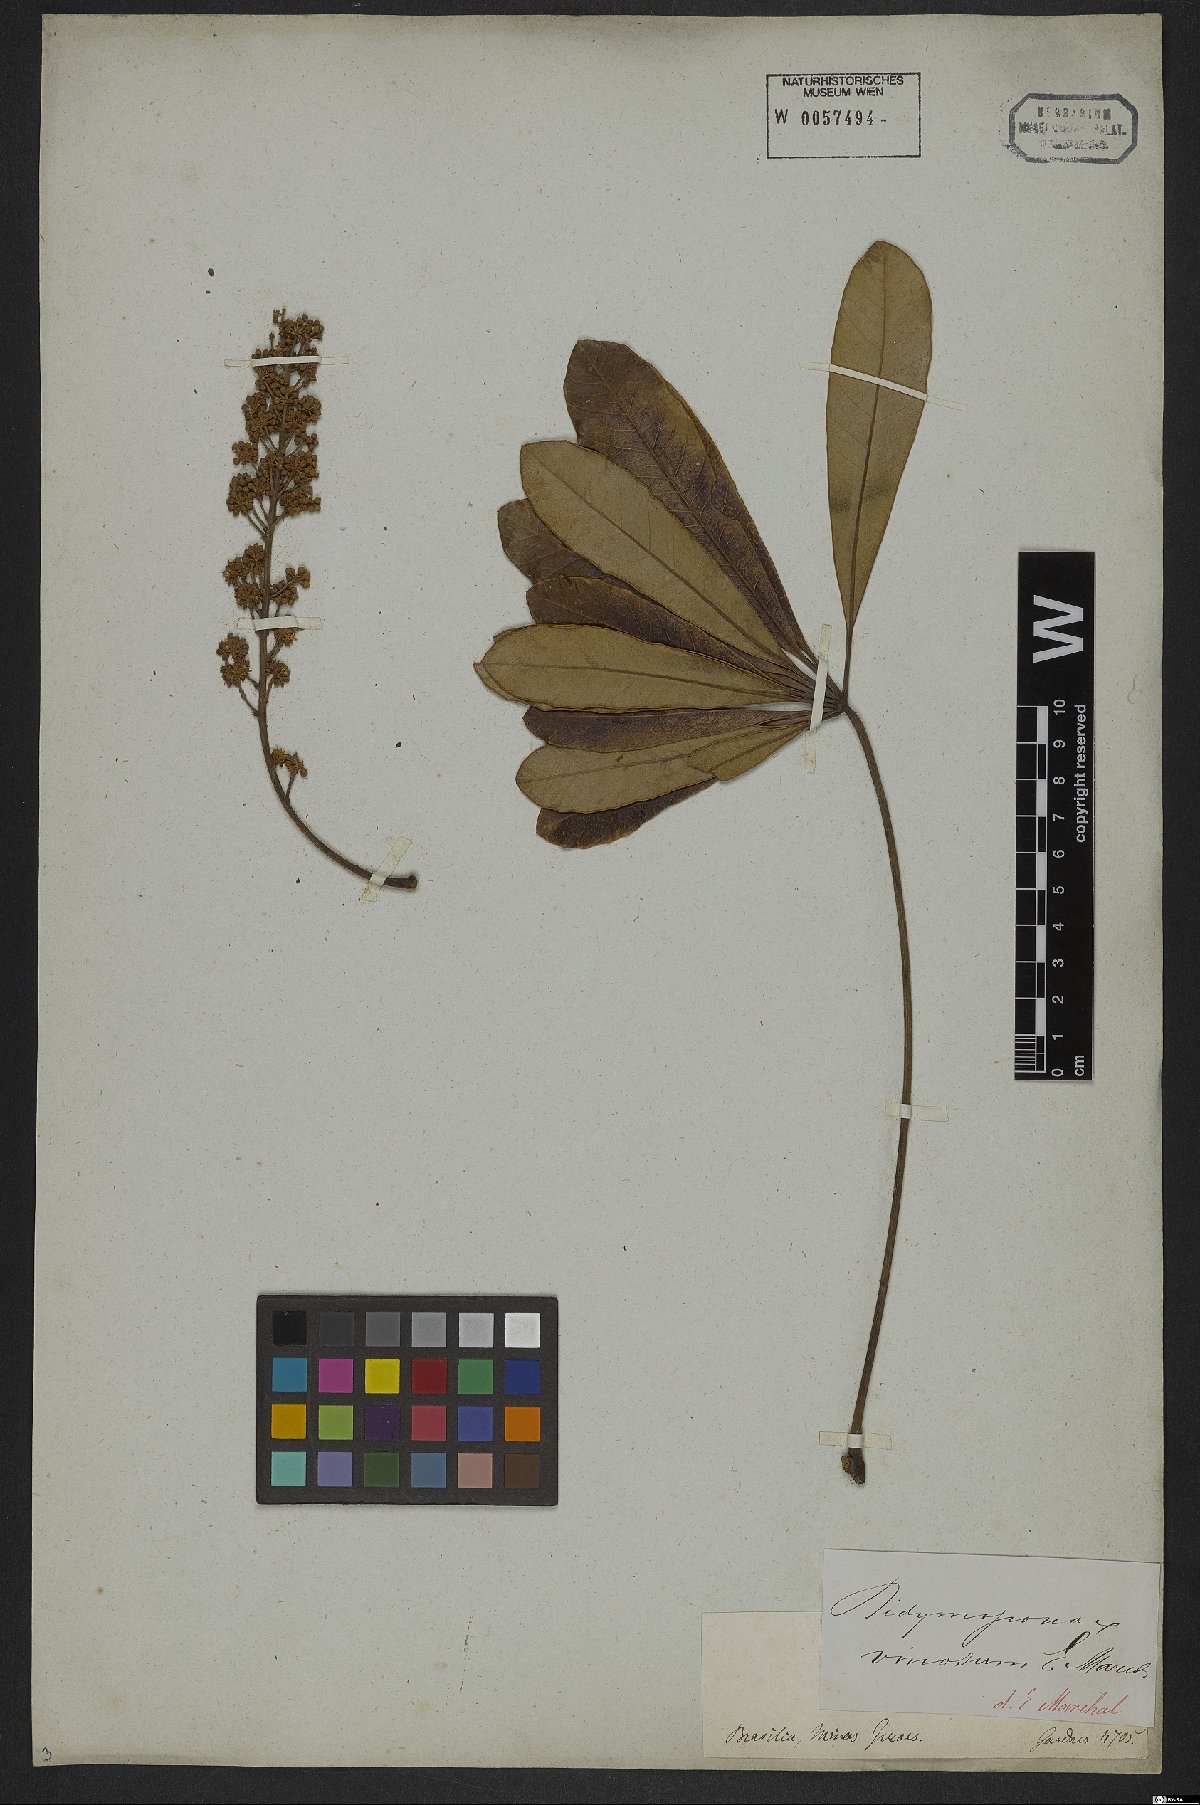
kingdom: Plantae
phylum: Tracheophyta
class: Magnoliopsida
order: Apiales
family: Araliaceae
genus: Didymopanax
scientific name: Didymopanax vinosus
